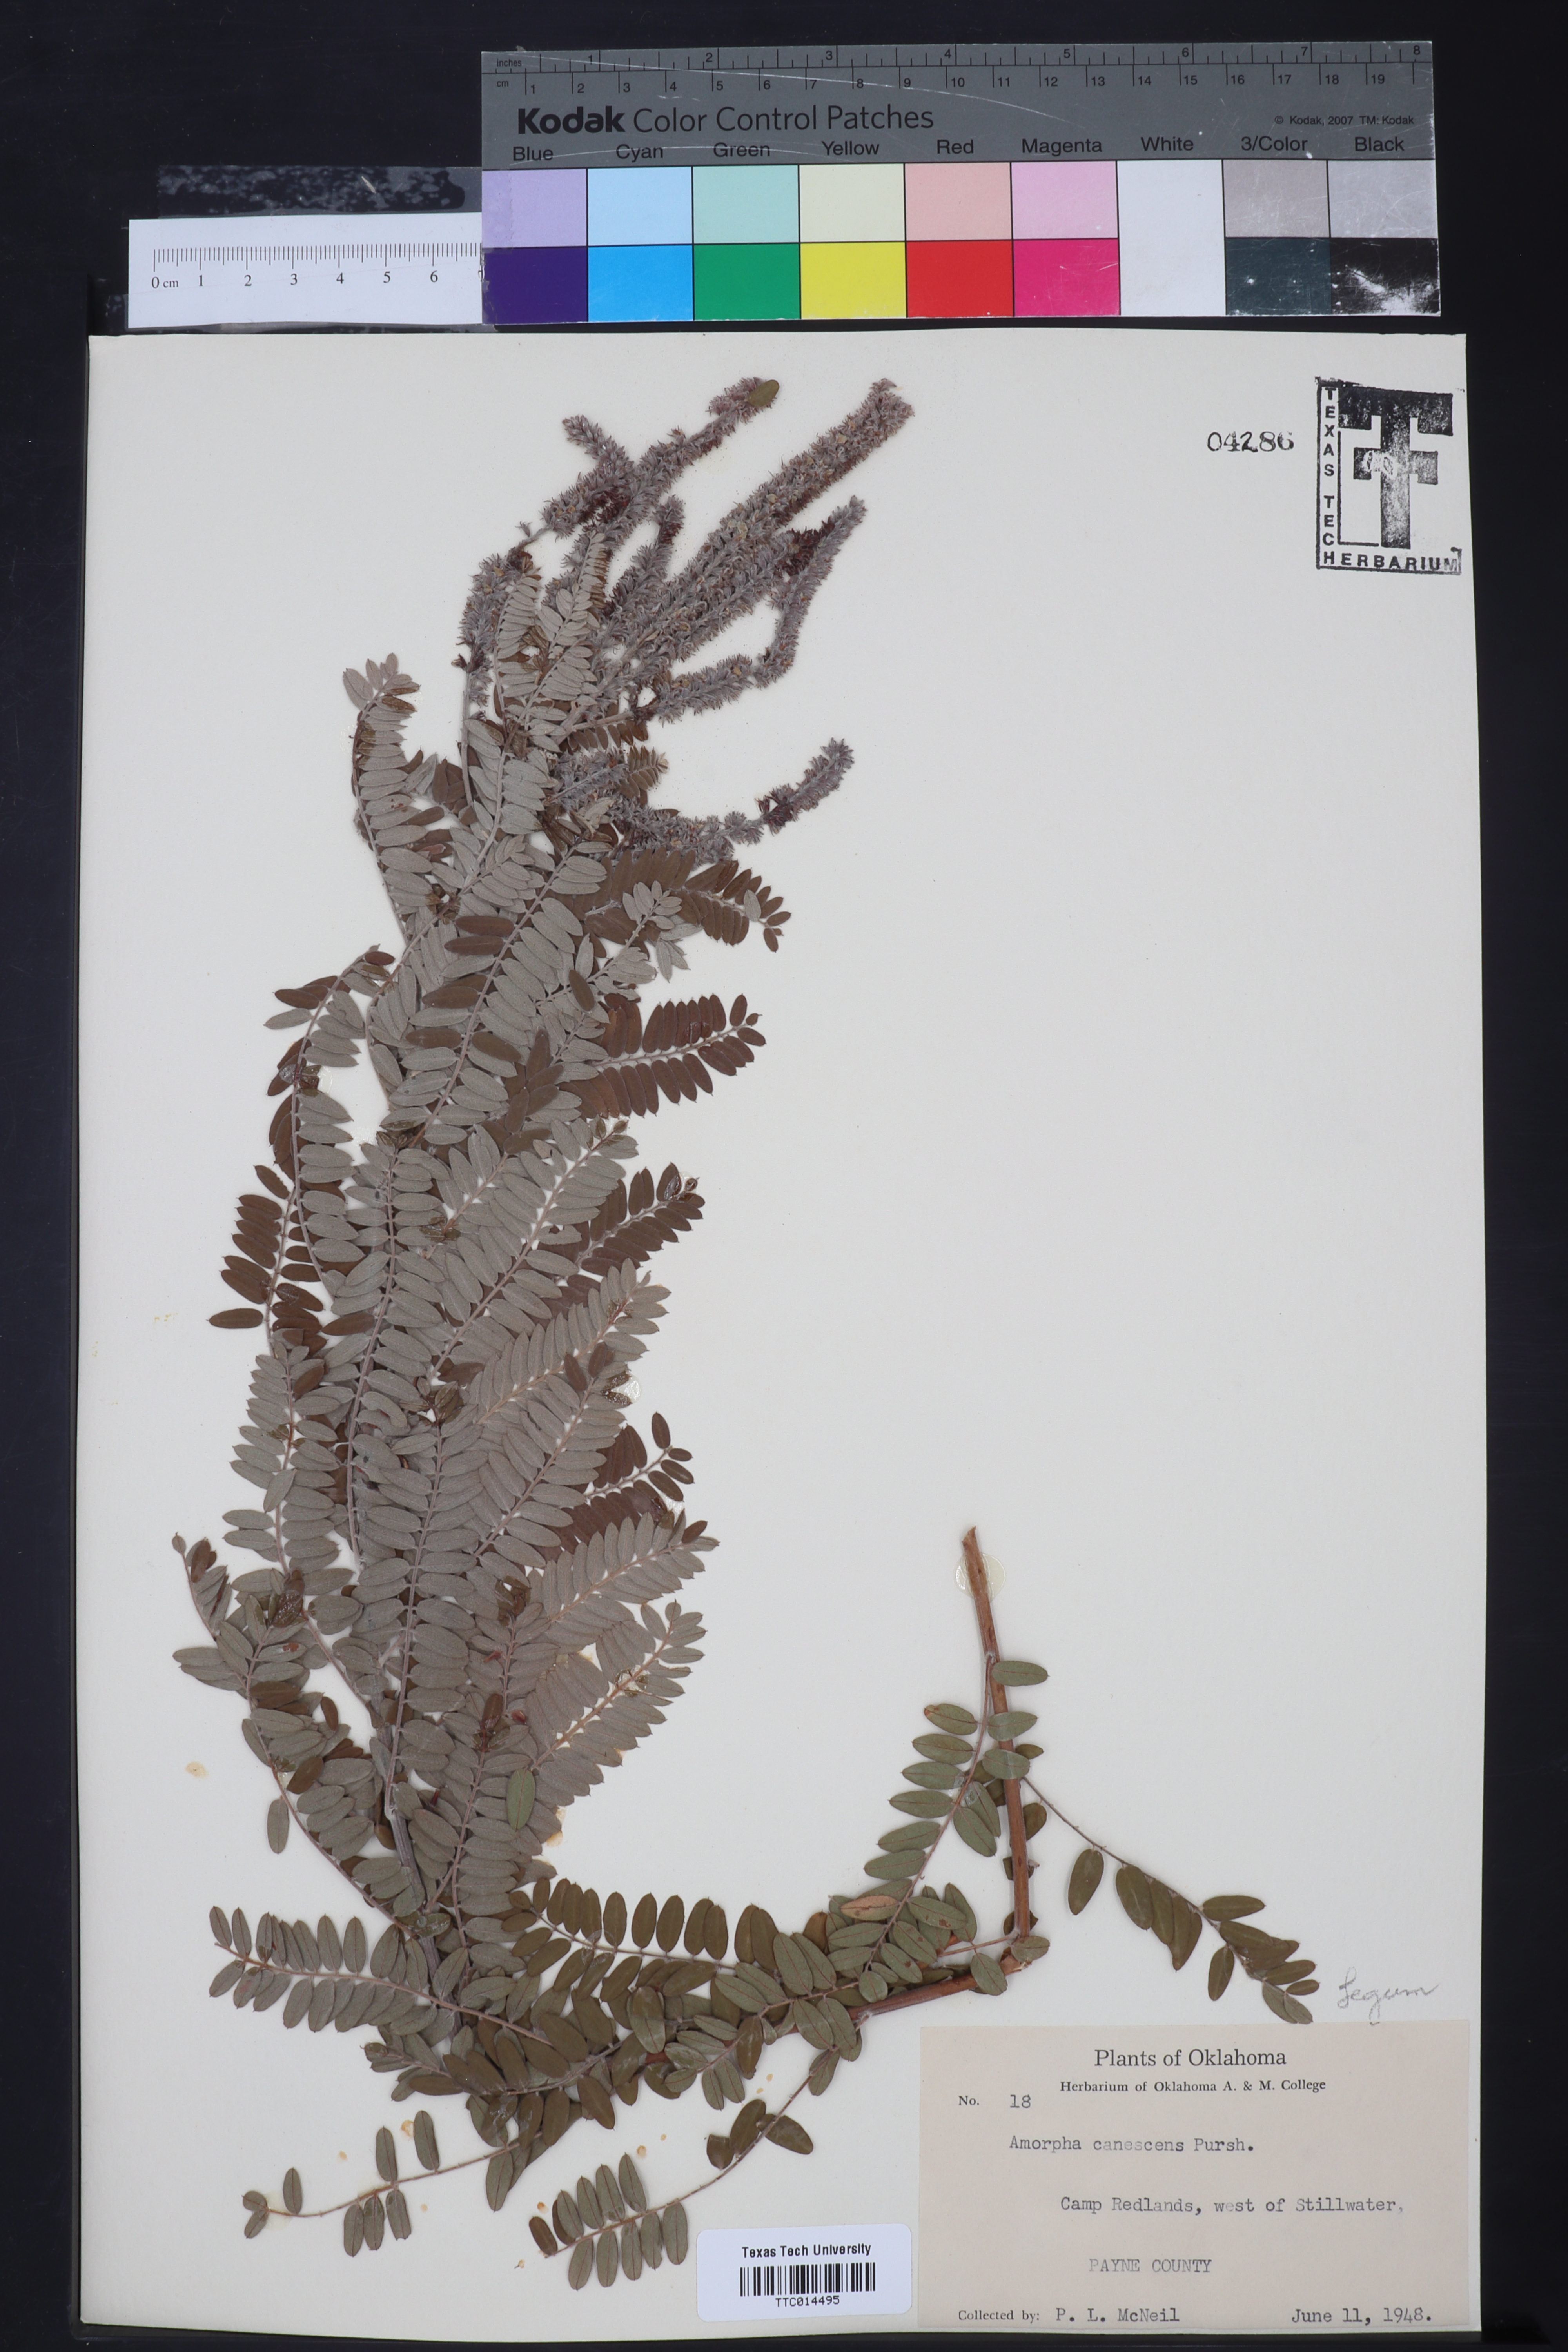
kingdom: Plantae
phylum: Tracheophyta
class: Magnoliopsida
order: Fabales
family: Fabaceae
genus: Amorpha
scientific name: Amorpha canescens
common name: Leadplant
